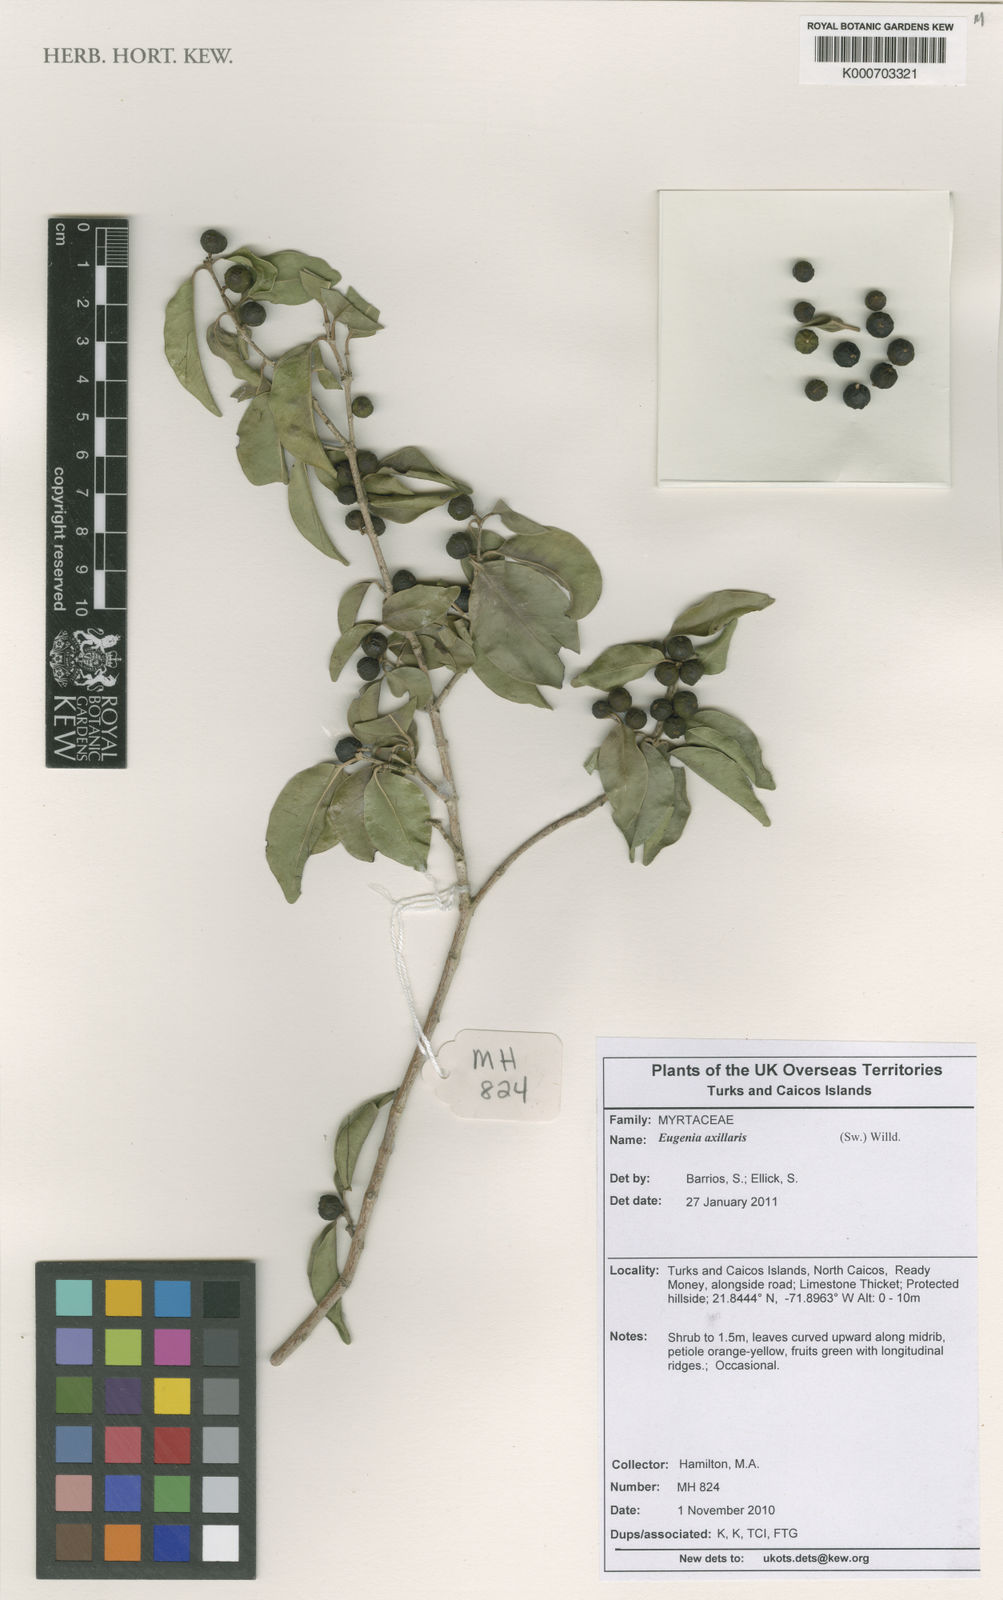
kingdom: Plantae
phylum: Tracheophyta
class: Magnoliopsida
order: Myrtales
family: Myrtaceae
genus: Eugenia
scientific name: Eugenia axillaris
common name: Choaky berry
